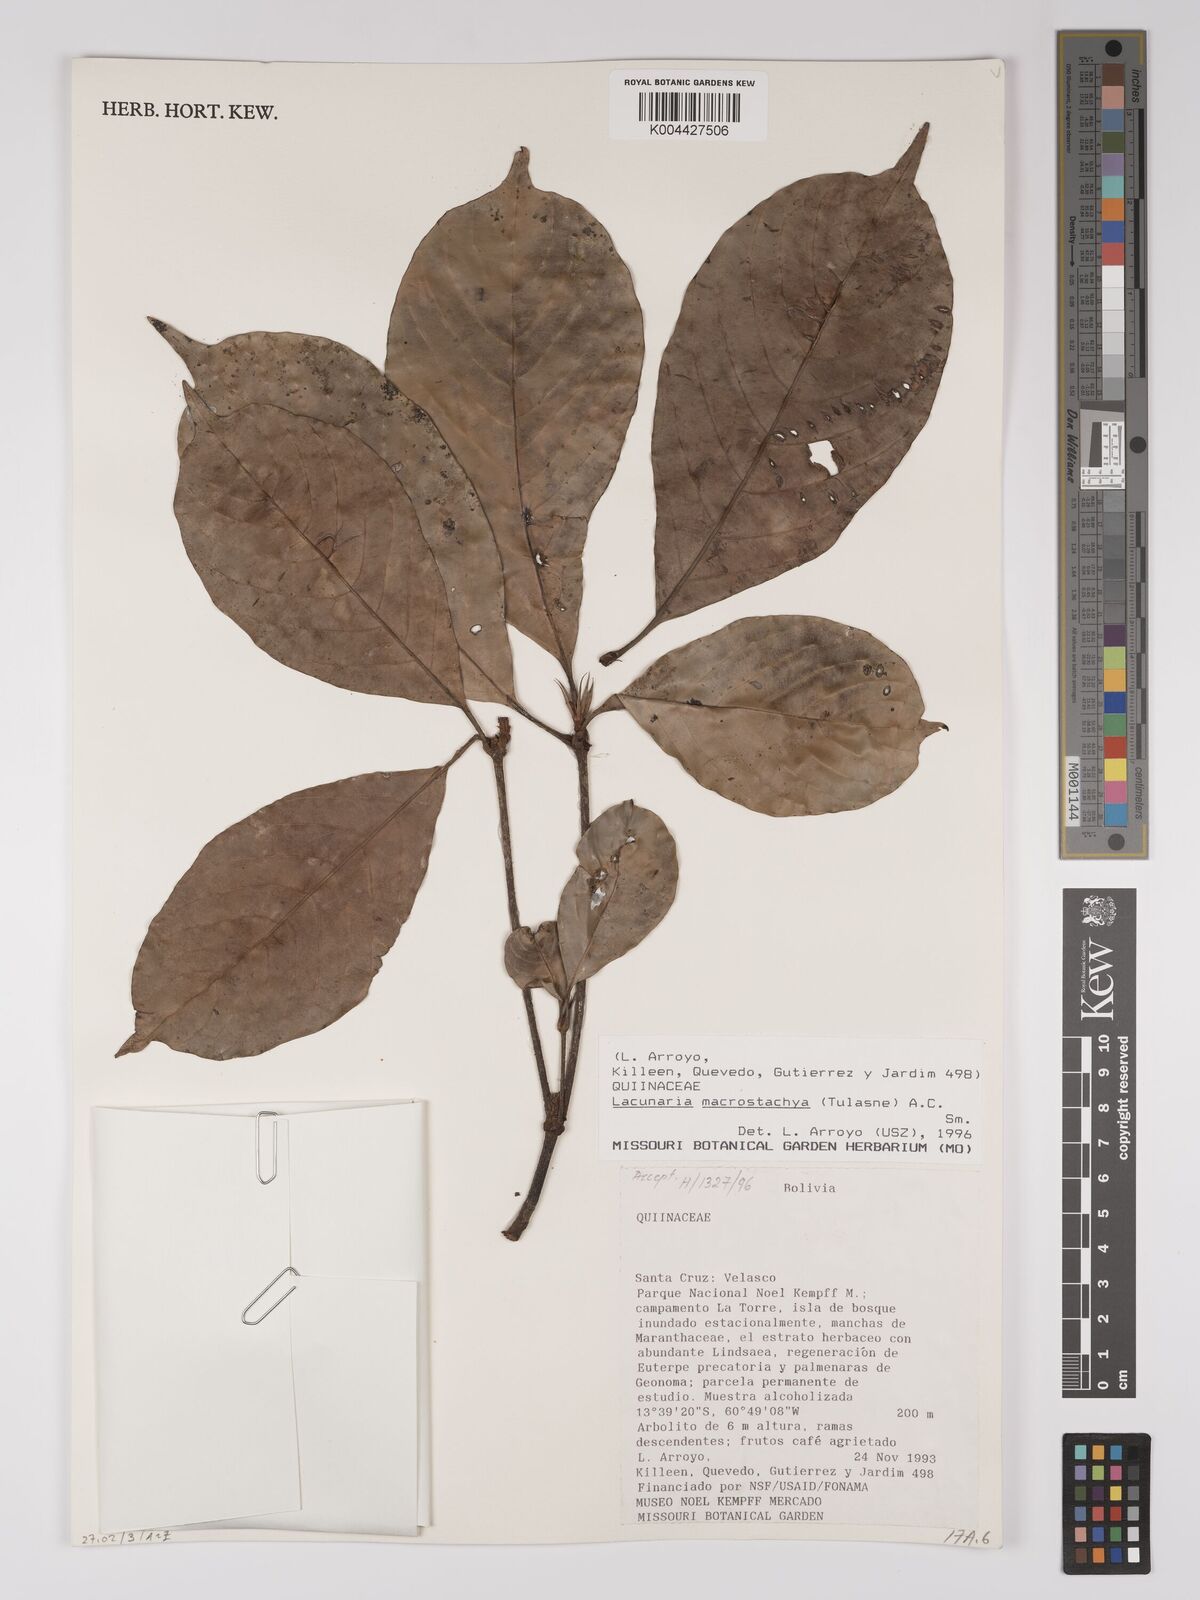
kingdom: Plantae
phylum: Tracheophyta
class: Magnoliopsida
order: Malpighiales
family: Quiinaceae
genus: Lacunaria
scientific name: Lacunaria macrostachya
